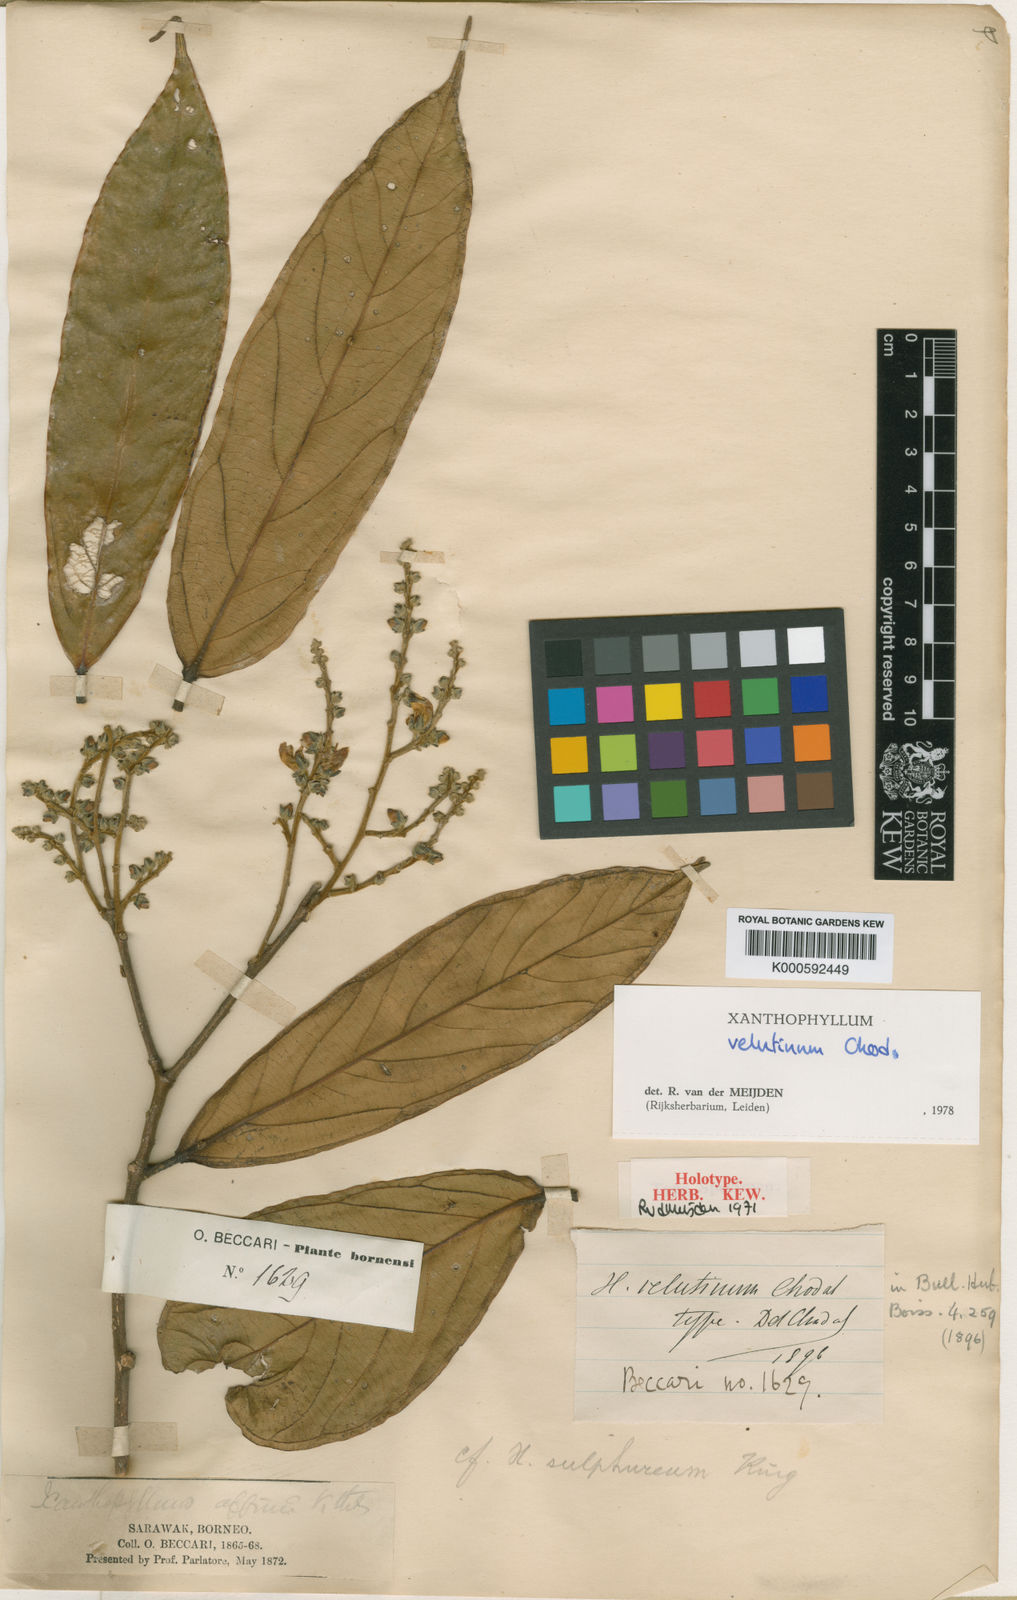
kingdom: Plantae
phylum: Tracheophyta
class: Magnoliopsida
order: Fabales
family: Polygalaceae
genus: Xanthophyllum
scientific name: Xanthophyllum velutinum
